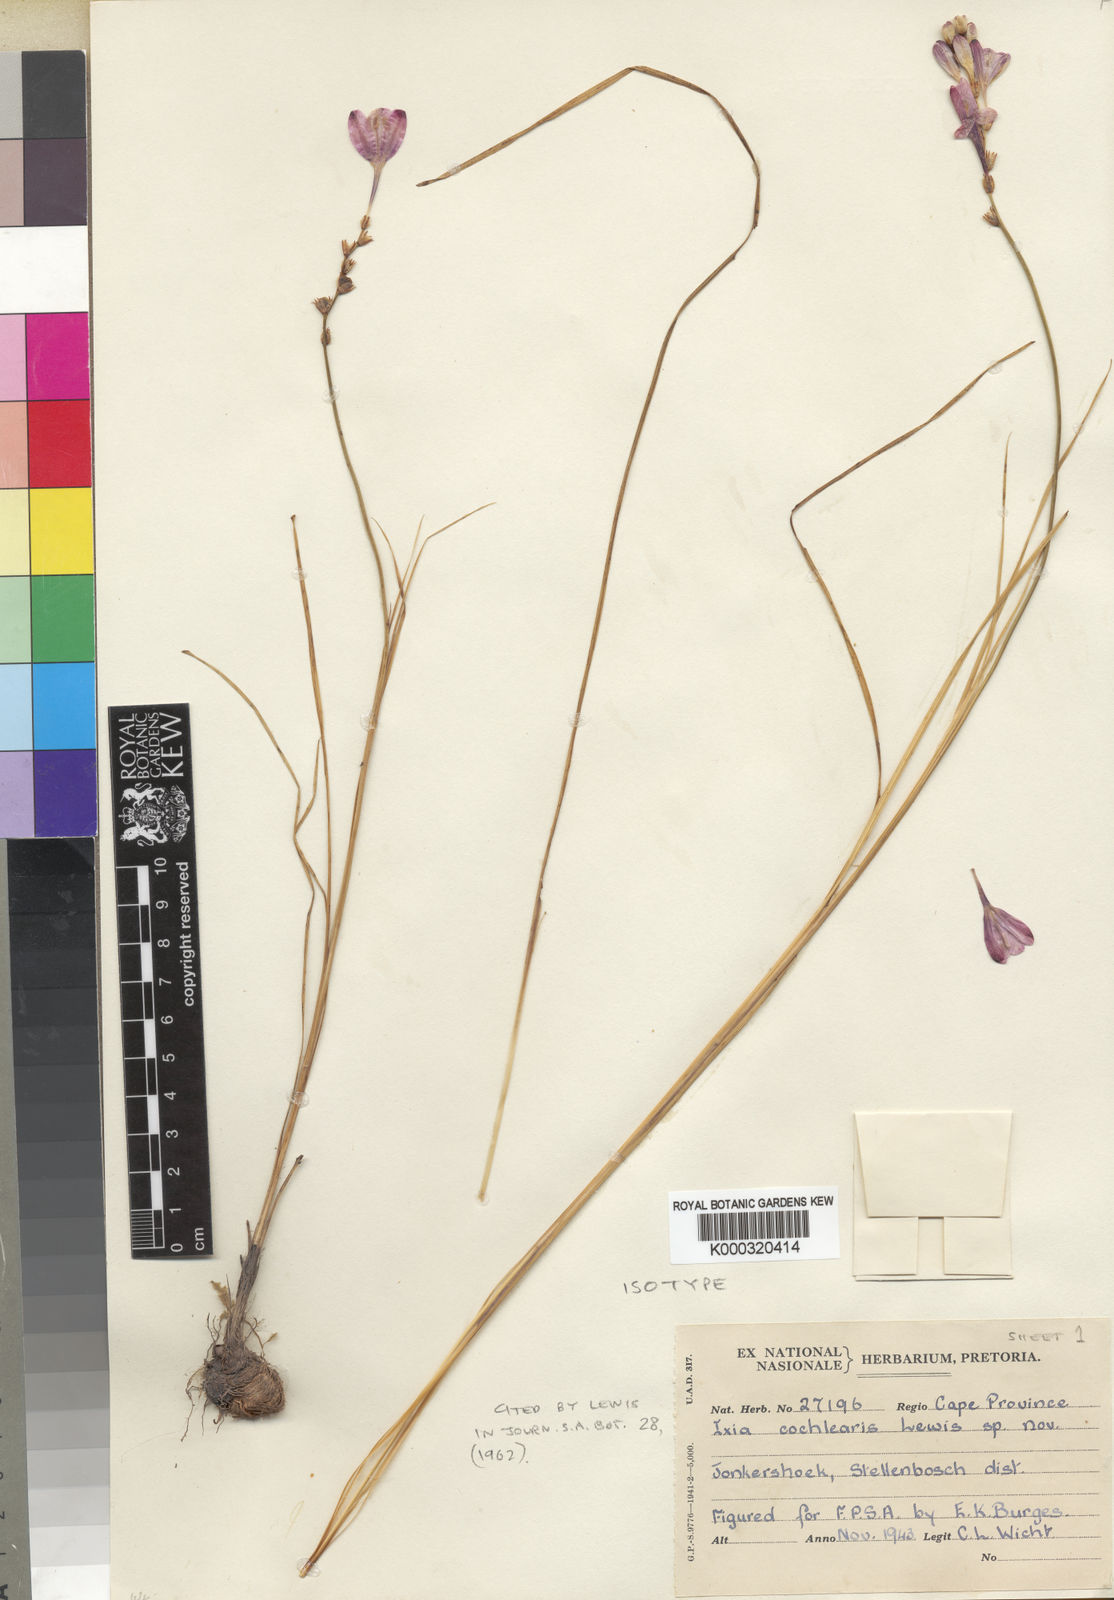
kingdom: Plantae
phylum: Tracheophyta
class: Liliopsida
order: Asparagales
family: Iridaceae
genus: Ixia
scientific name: Ixia cochlearis
